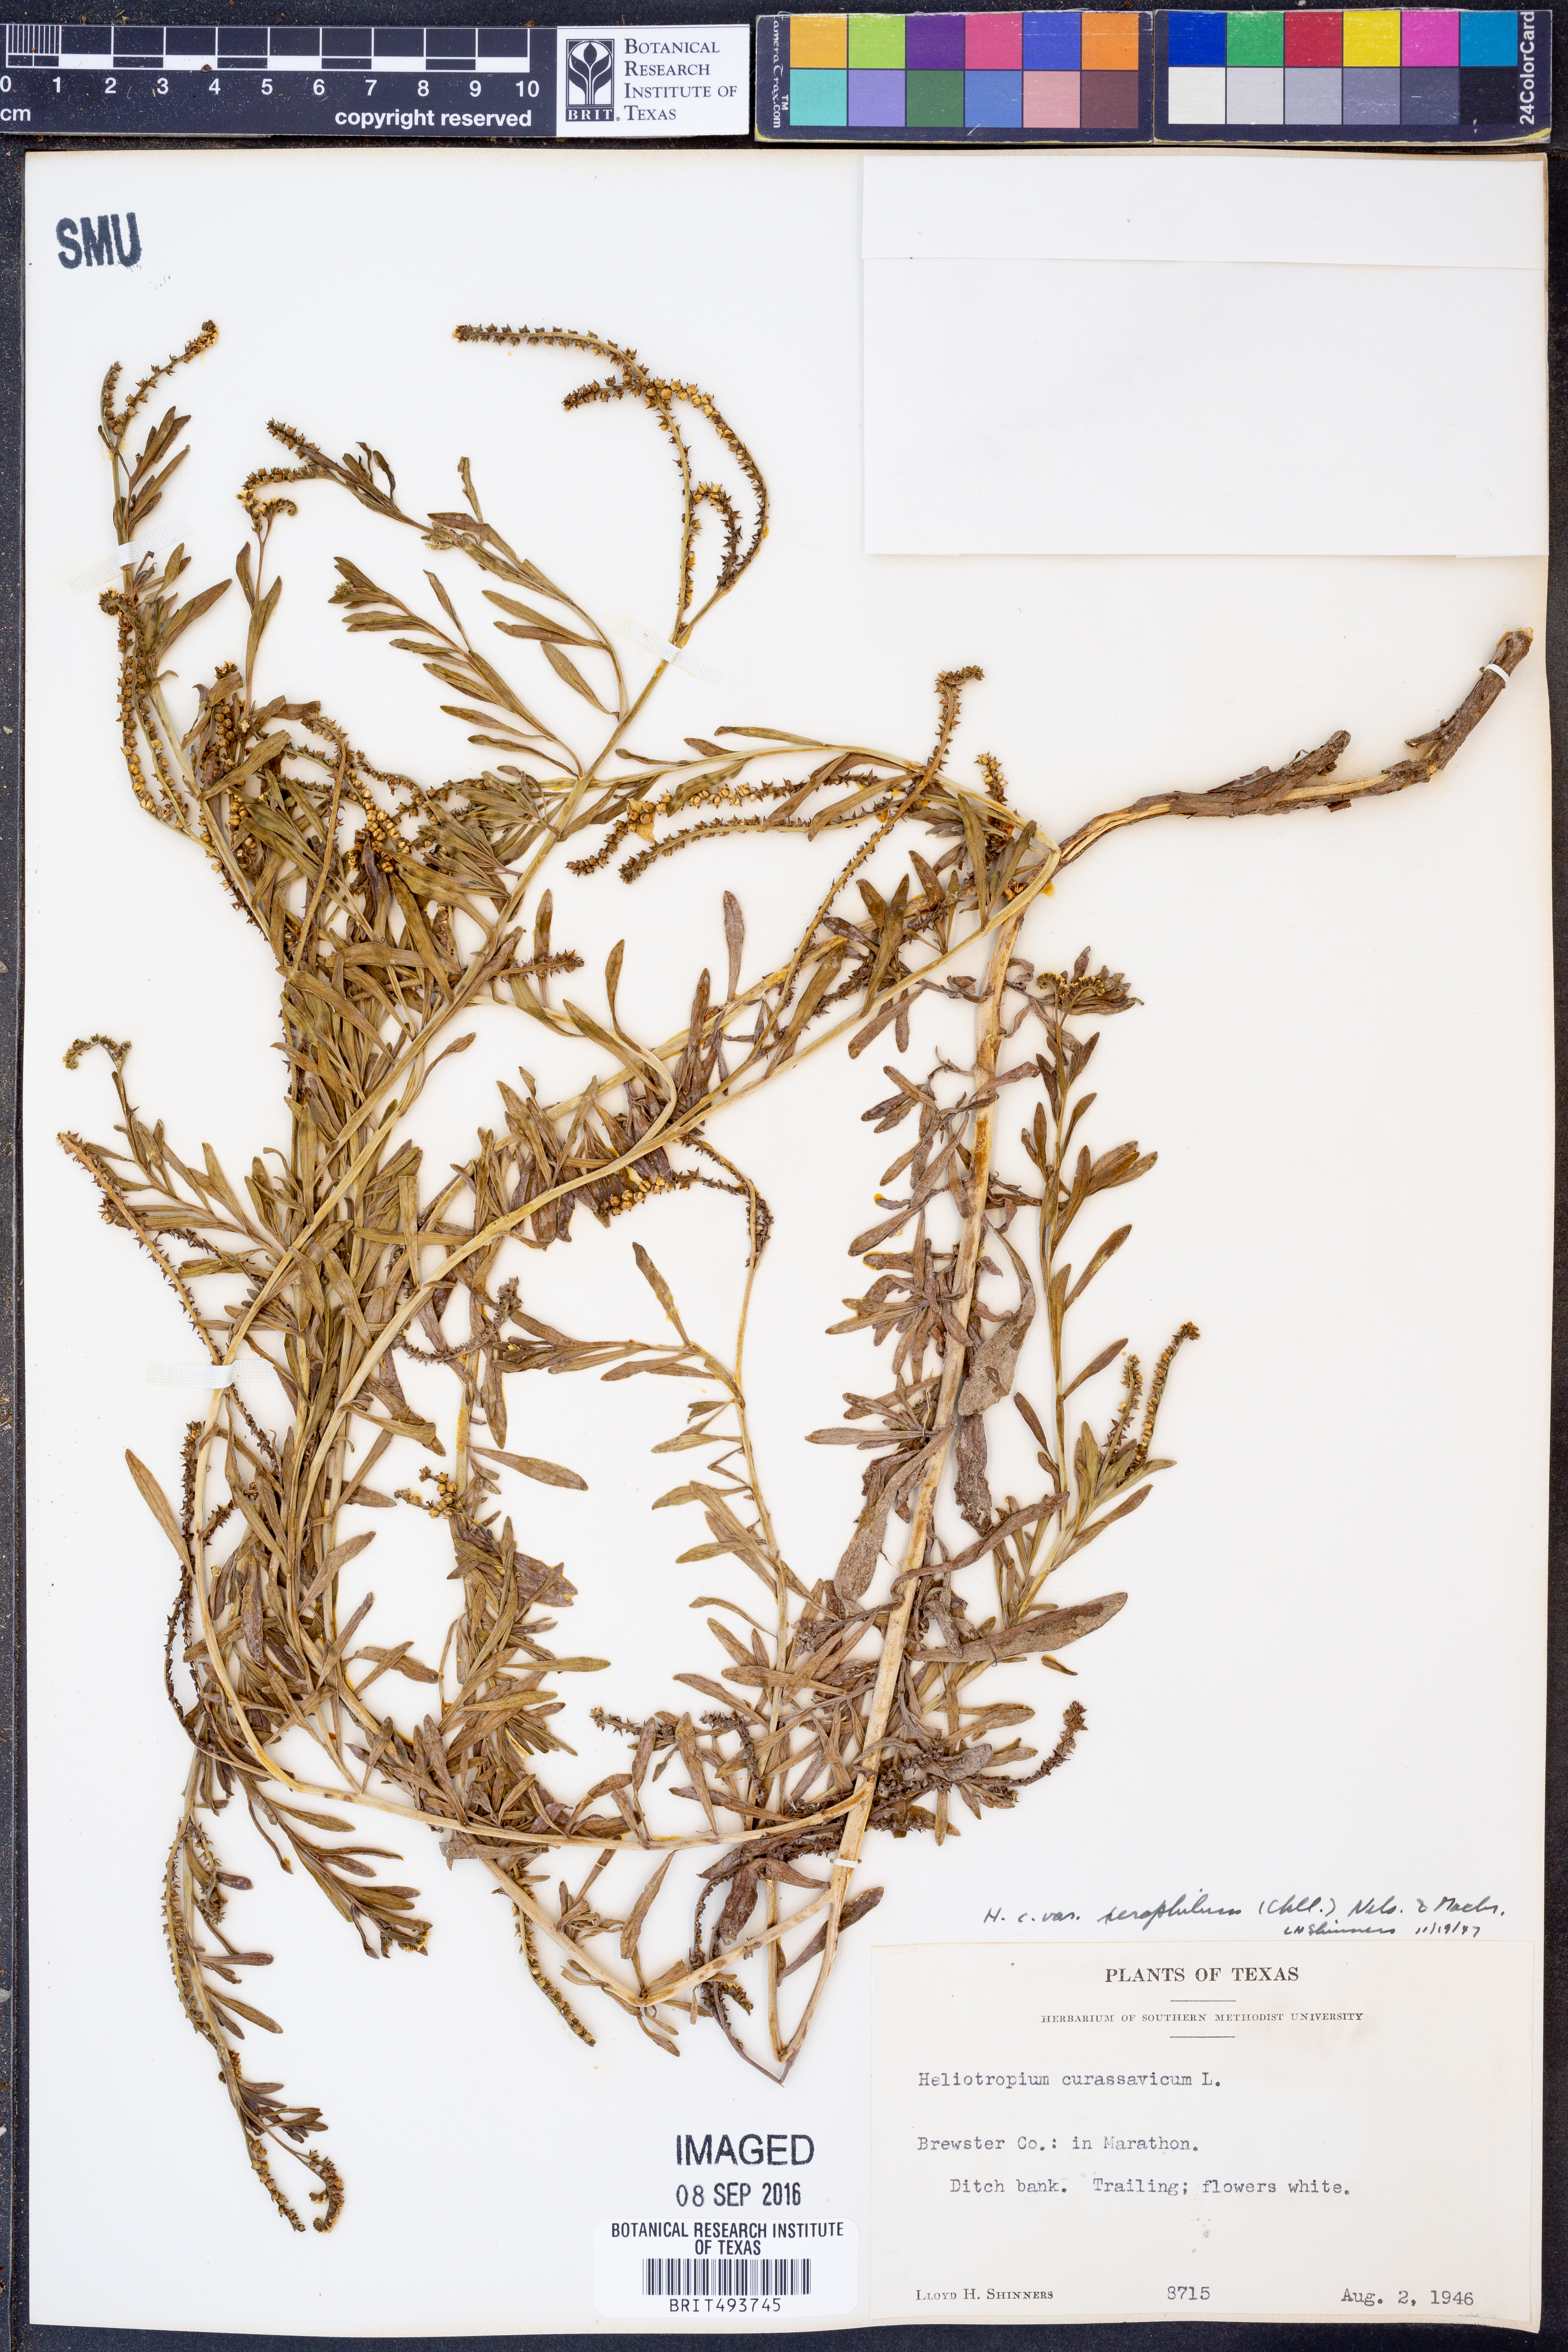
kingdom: Plantae
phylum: Tracheophyta
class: Magnoliopsida
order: Boraginales
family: Heliotropiaceae
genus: Heliotropium
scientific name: Heliotropium curassavicum
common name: Seaside heliotrope
